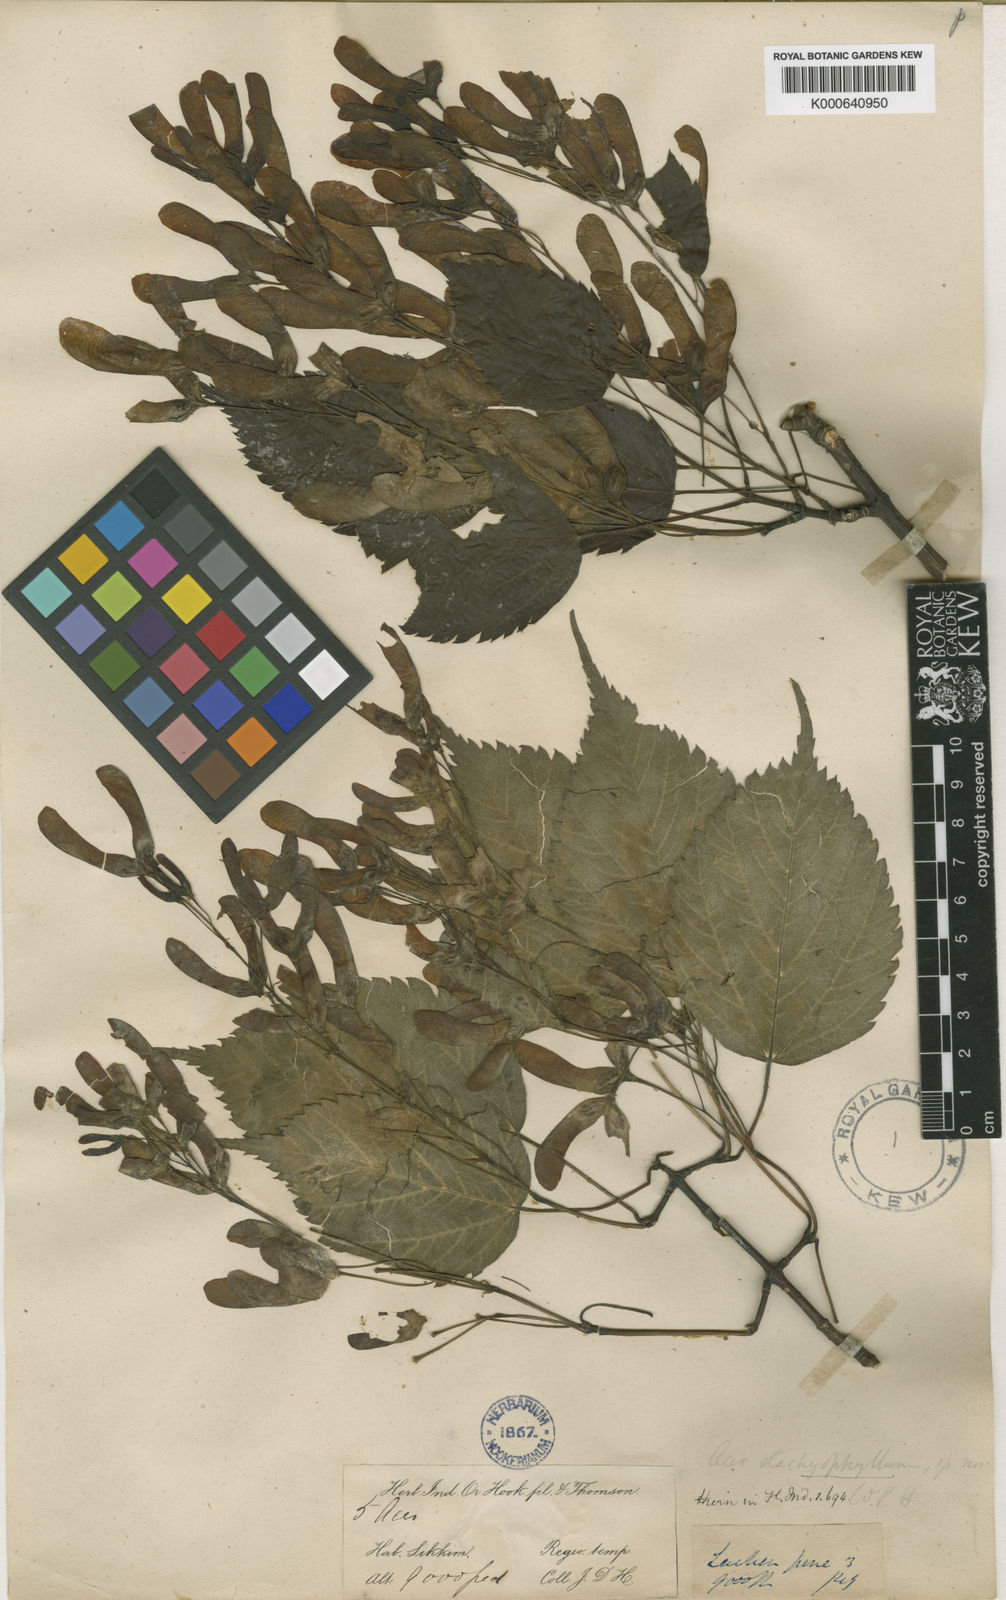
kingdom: Plantae
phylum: Tracheophyta
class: Magnoliopsida
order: Sapindales
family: Sapindaceae
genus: Acer
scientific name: Acer stachyophyllum
